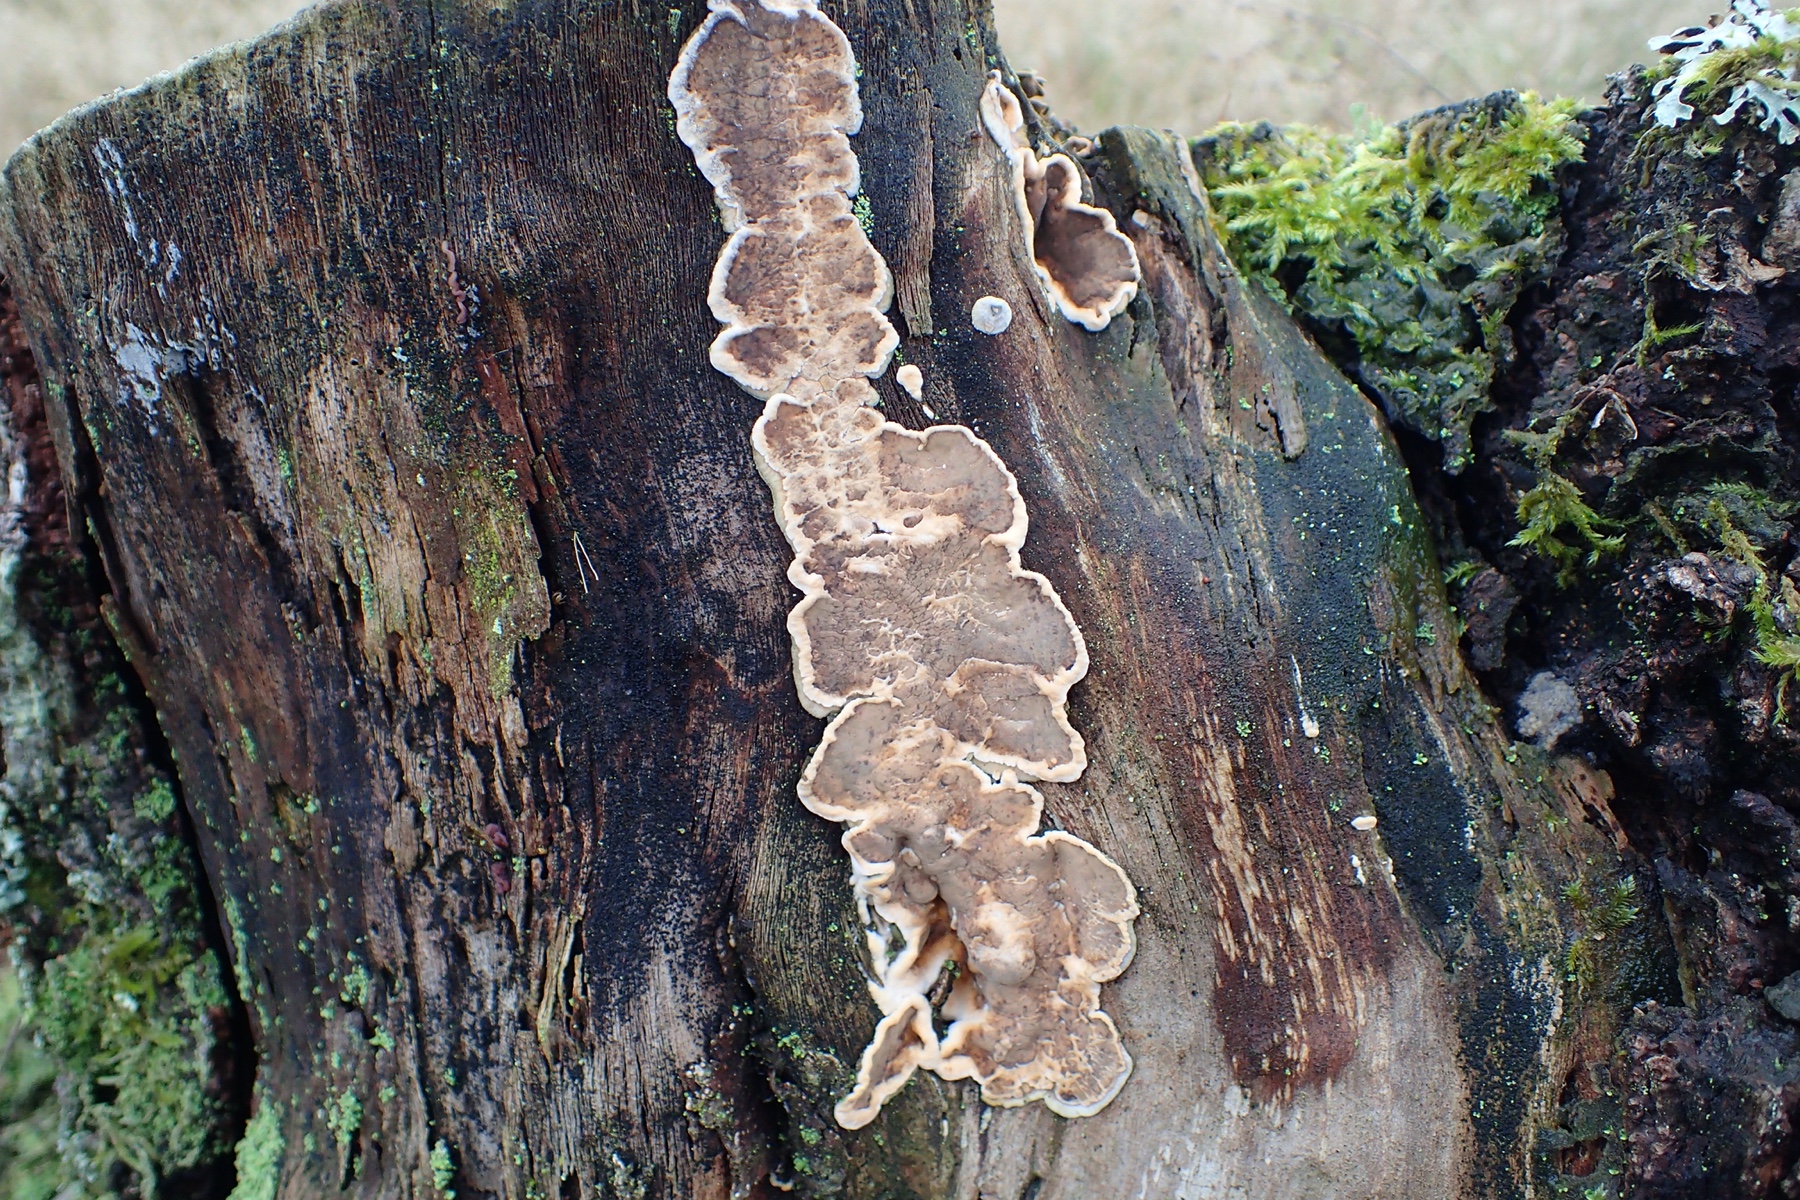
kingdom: Fungi
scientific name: Fungi
